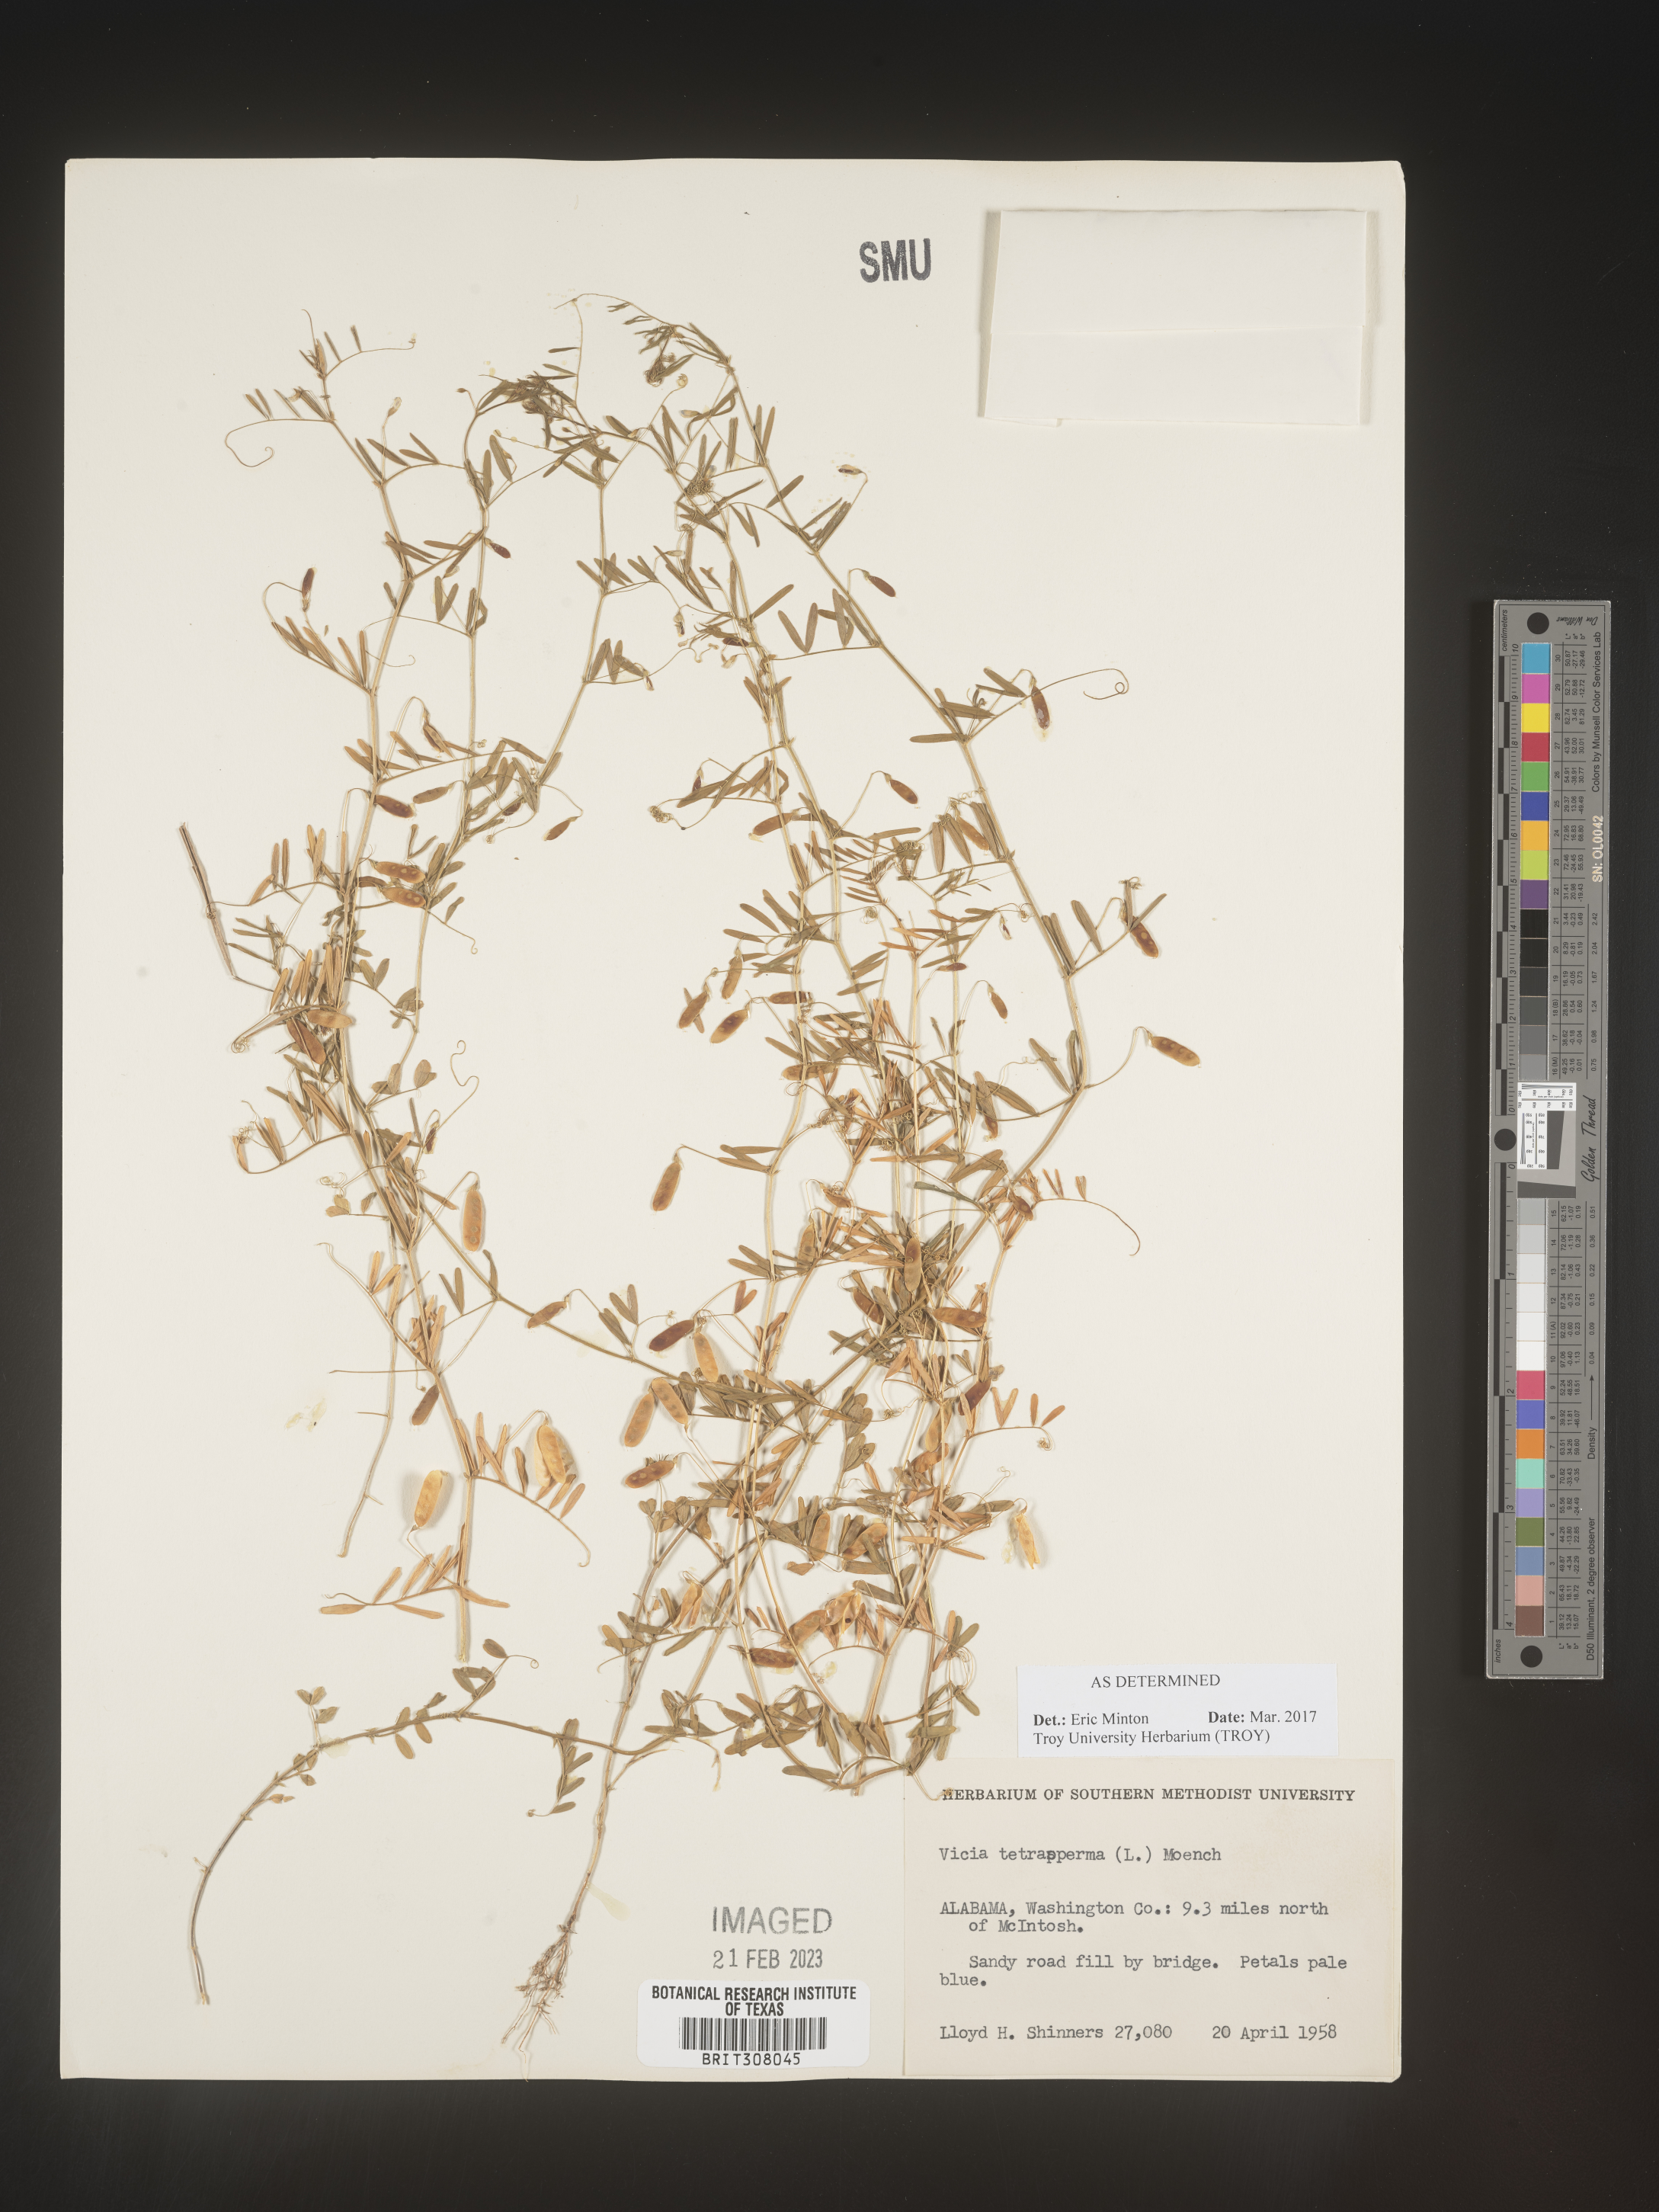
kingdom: Plantae
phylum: Tracheophyta
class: Magnoliopsida
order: Fabales
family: Fabaceae
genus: Vicia
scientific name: Vicia tetrasperma
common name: Smooth tare
